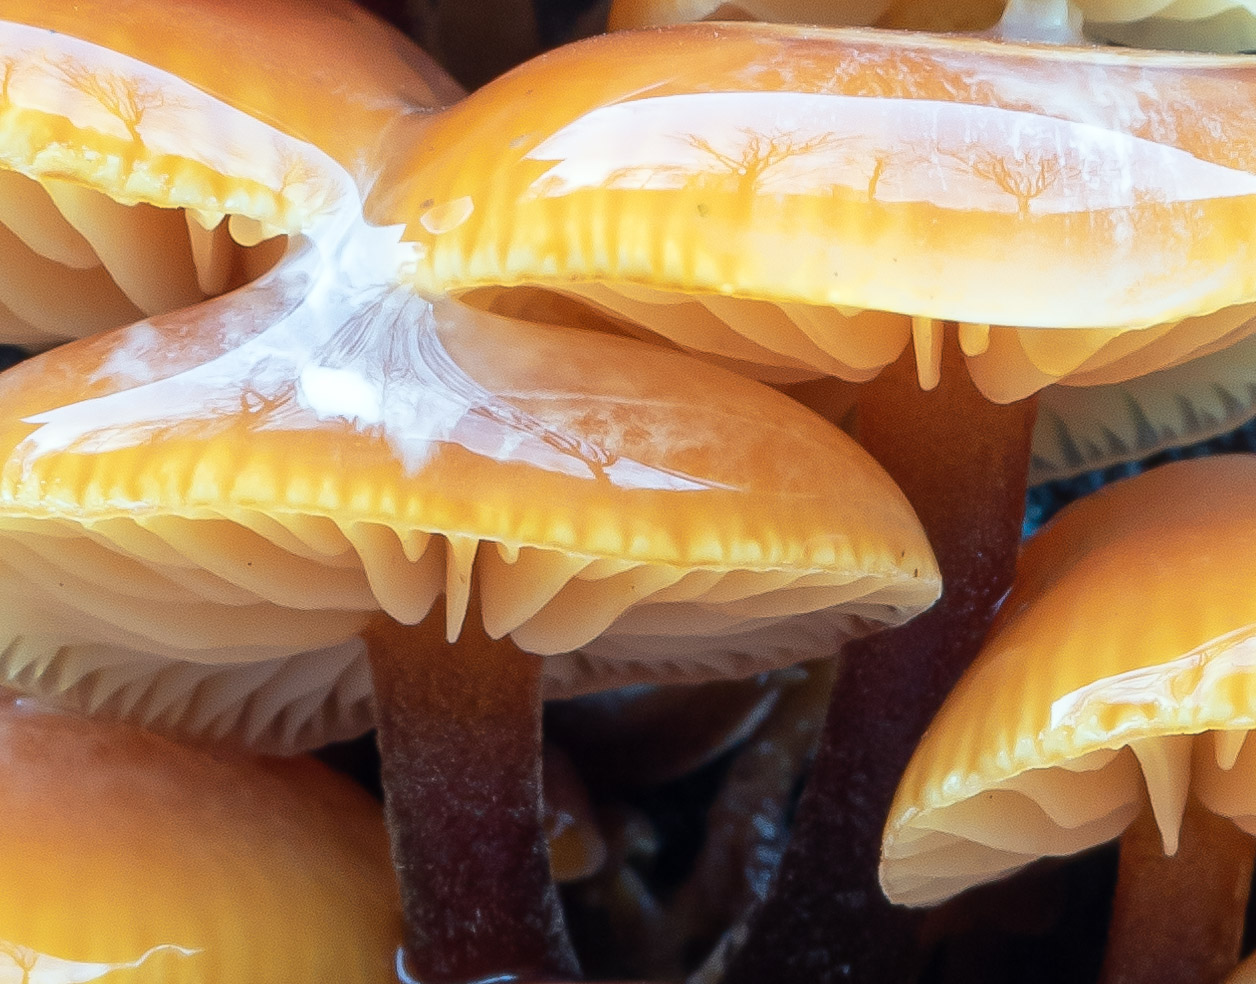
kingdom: Fungi
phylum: Basidiomycota
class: Agaricomycetes
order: Agaricales
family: Physalacriaceae
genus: Flammulina
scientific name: Flammulina velutipes
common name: gul fløjlsfod
